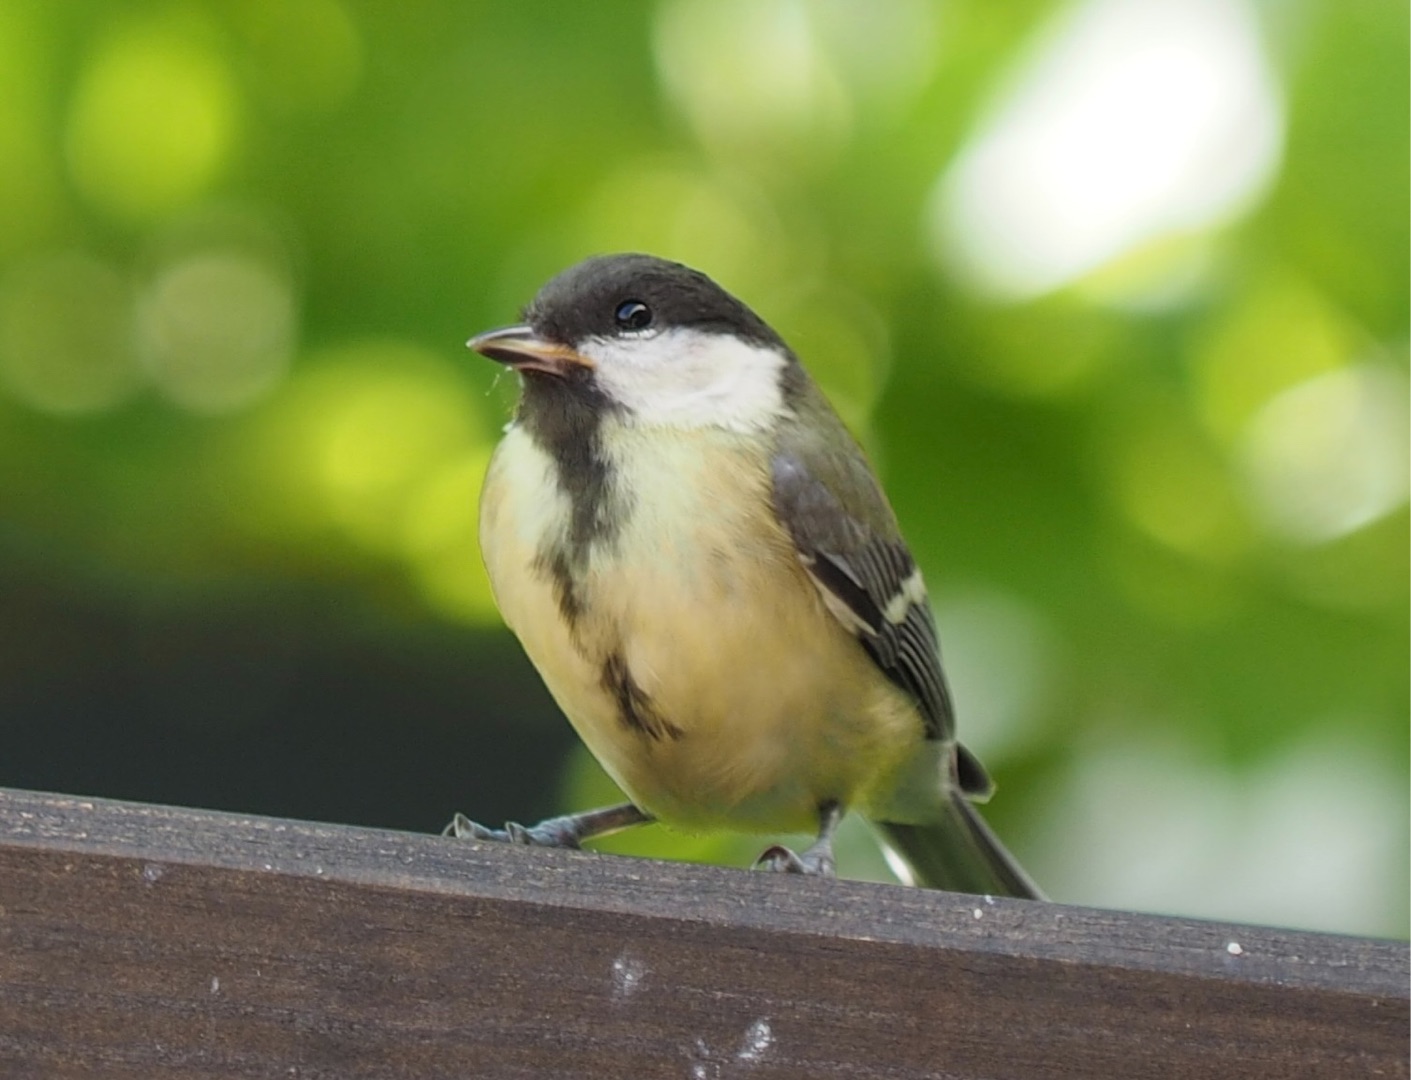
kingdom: Animalia
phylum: Chordata
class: Aves
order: Passeriformes
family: Paridae
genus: Parus
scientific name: Parus major
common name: Musvit
